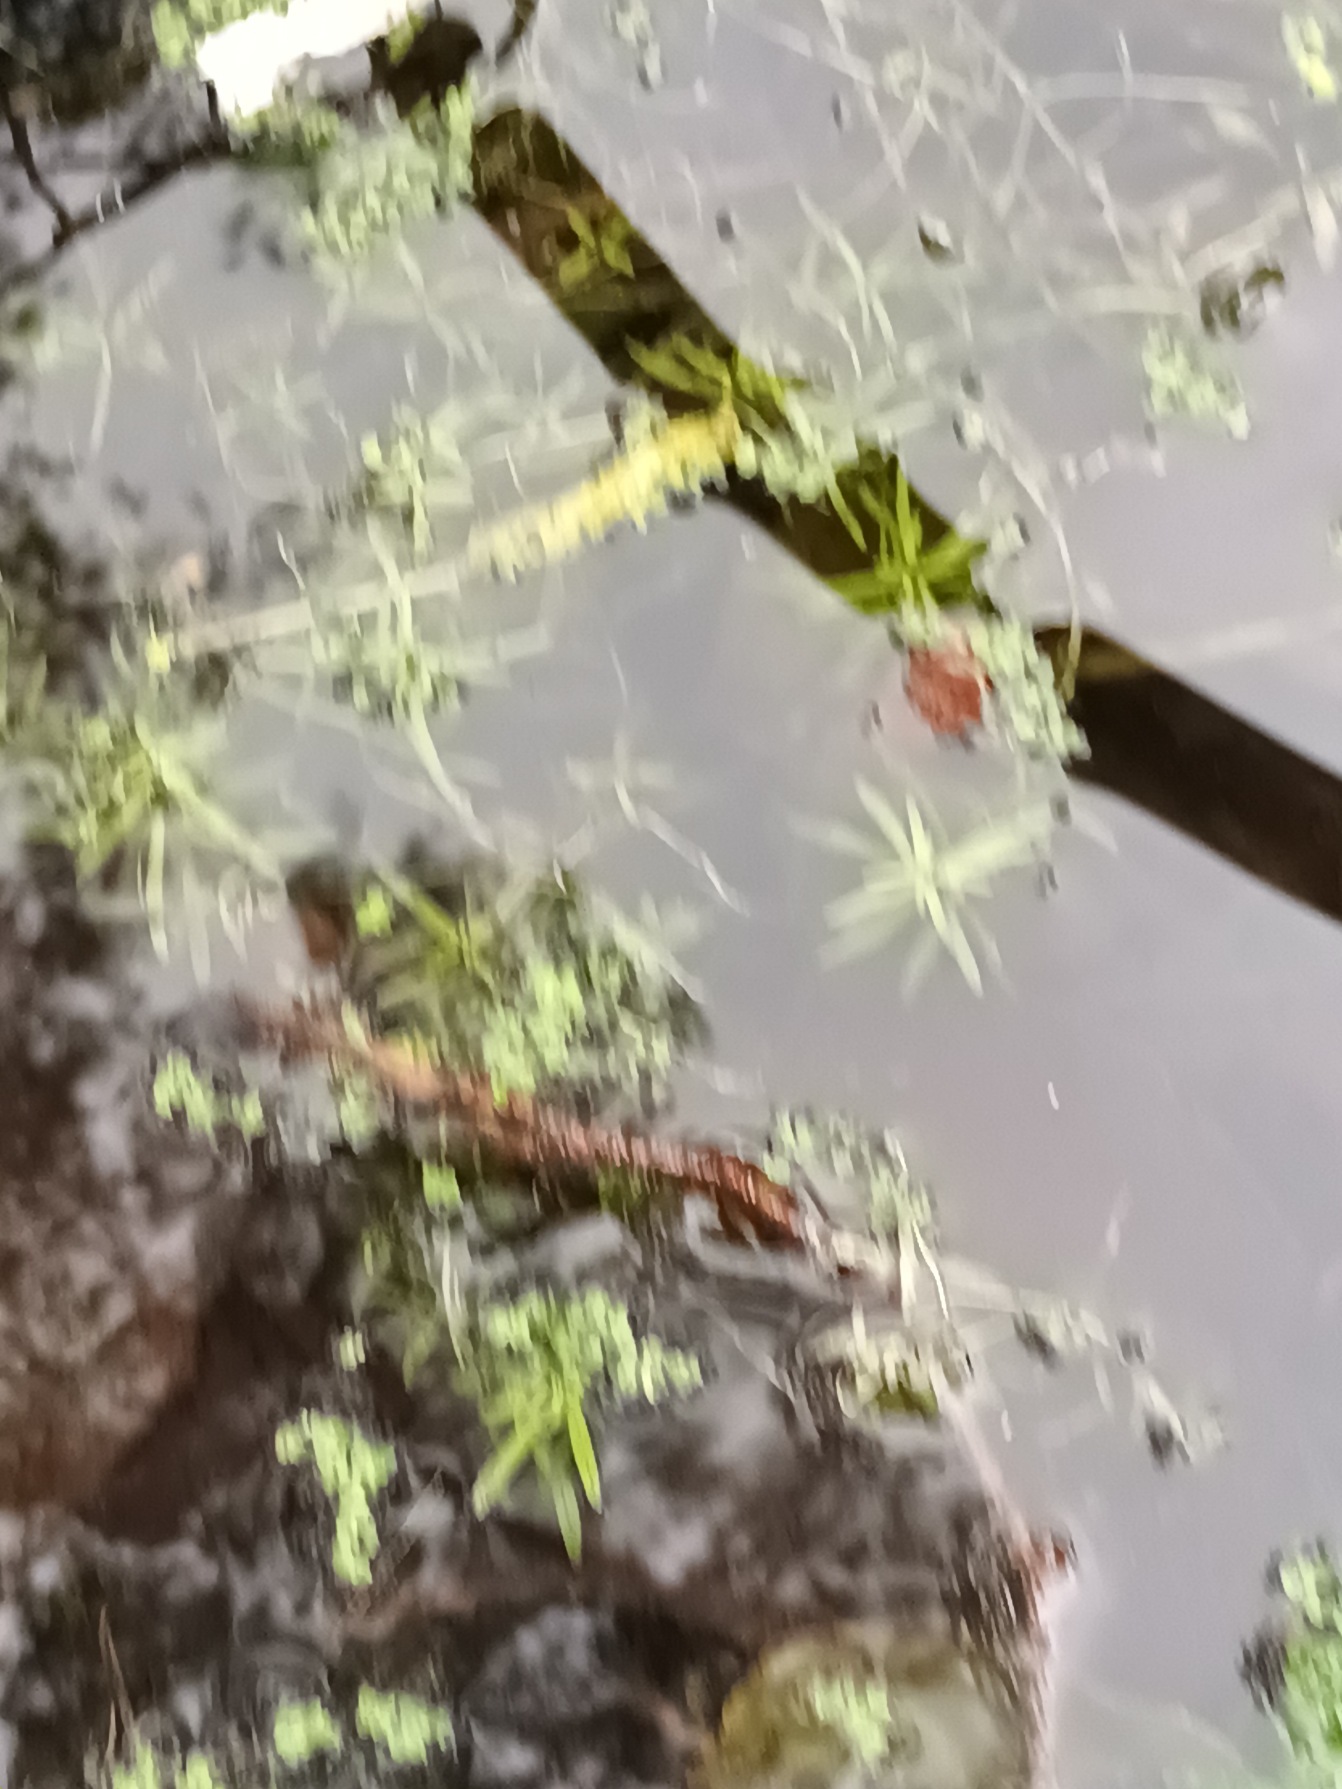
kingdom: Plantae
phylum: Tracheophyta
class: Magnoliopsida
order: Lamiales
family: Plantaginaceae
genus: Callitriche
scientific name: Callitriche cophocarpa
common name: Roset-vandstjerne
